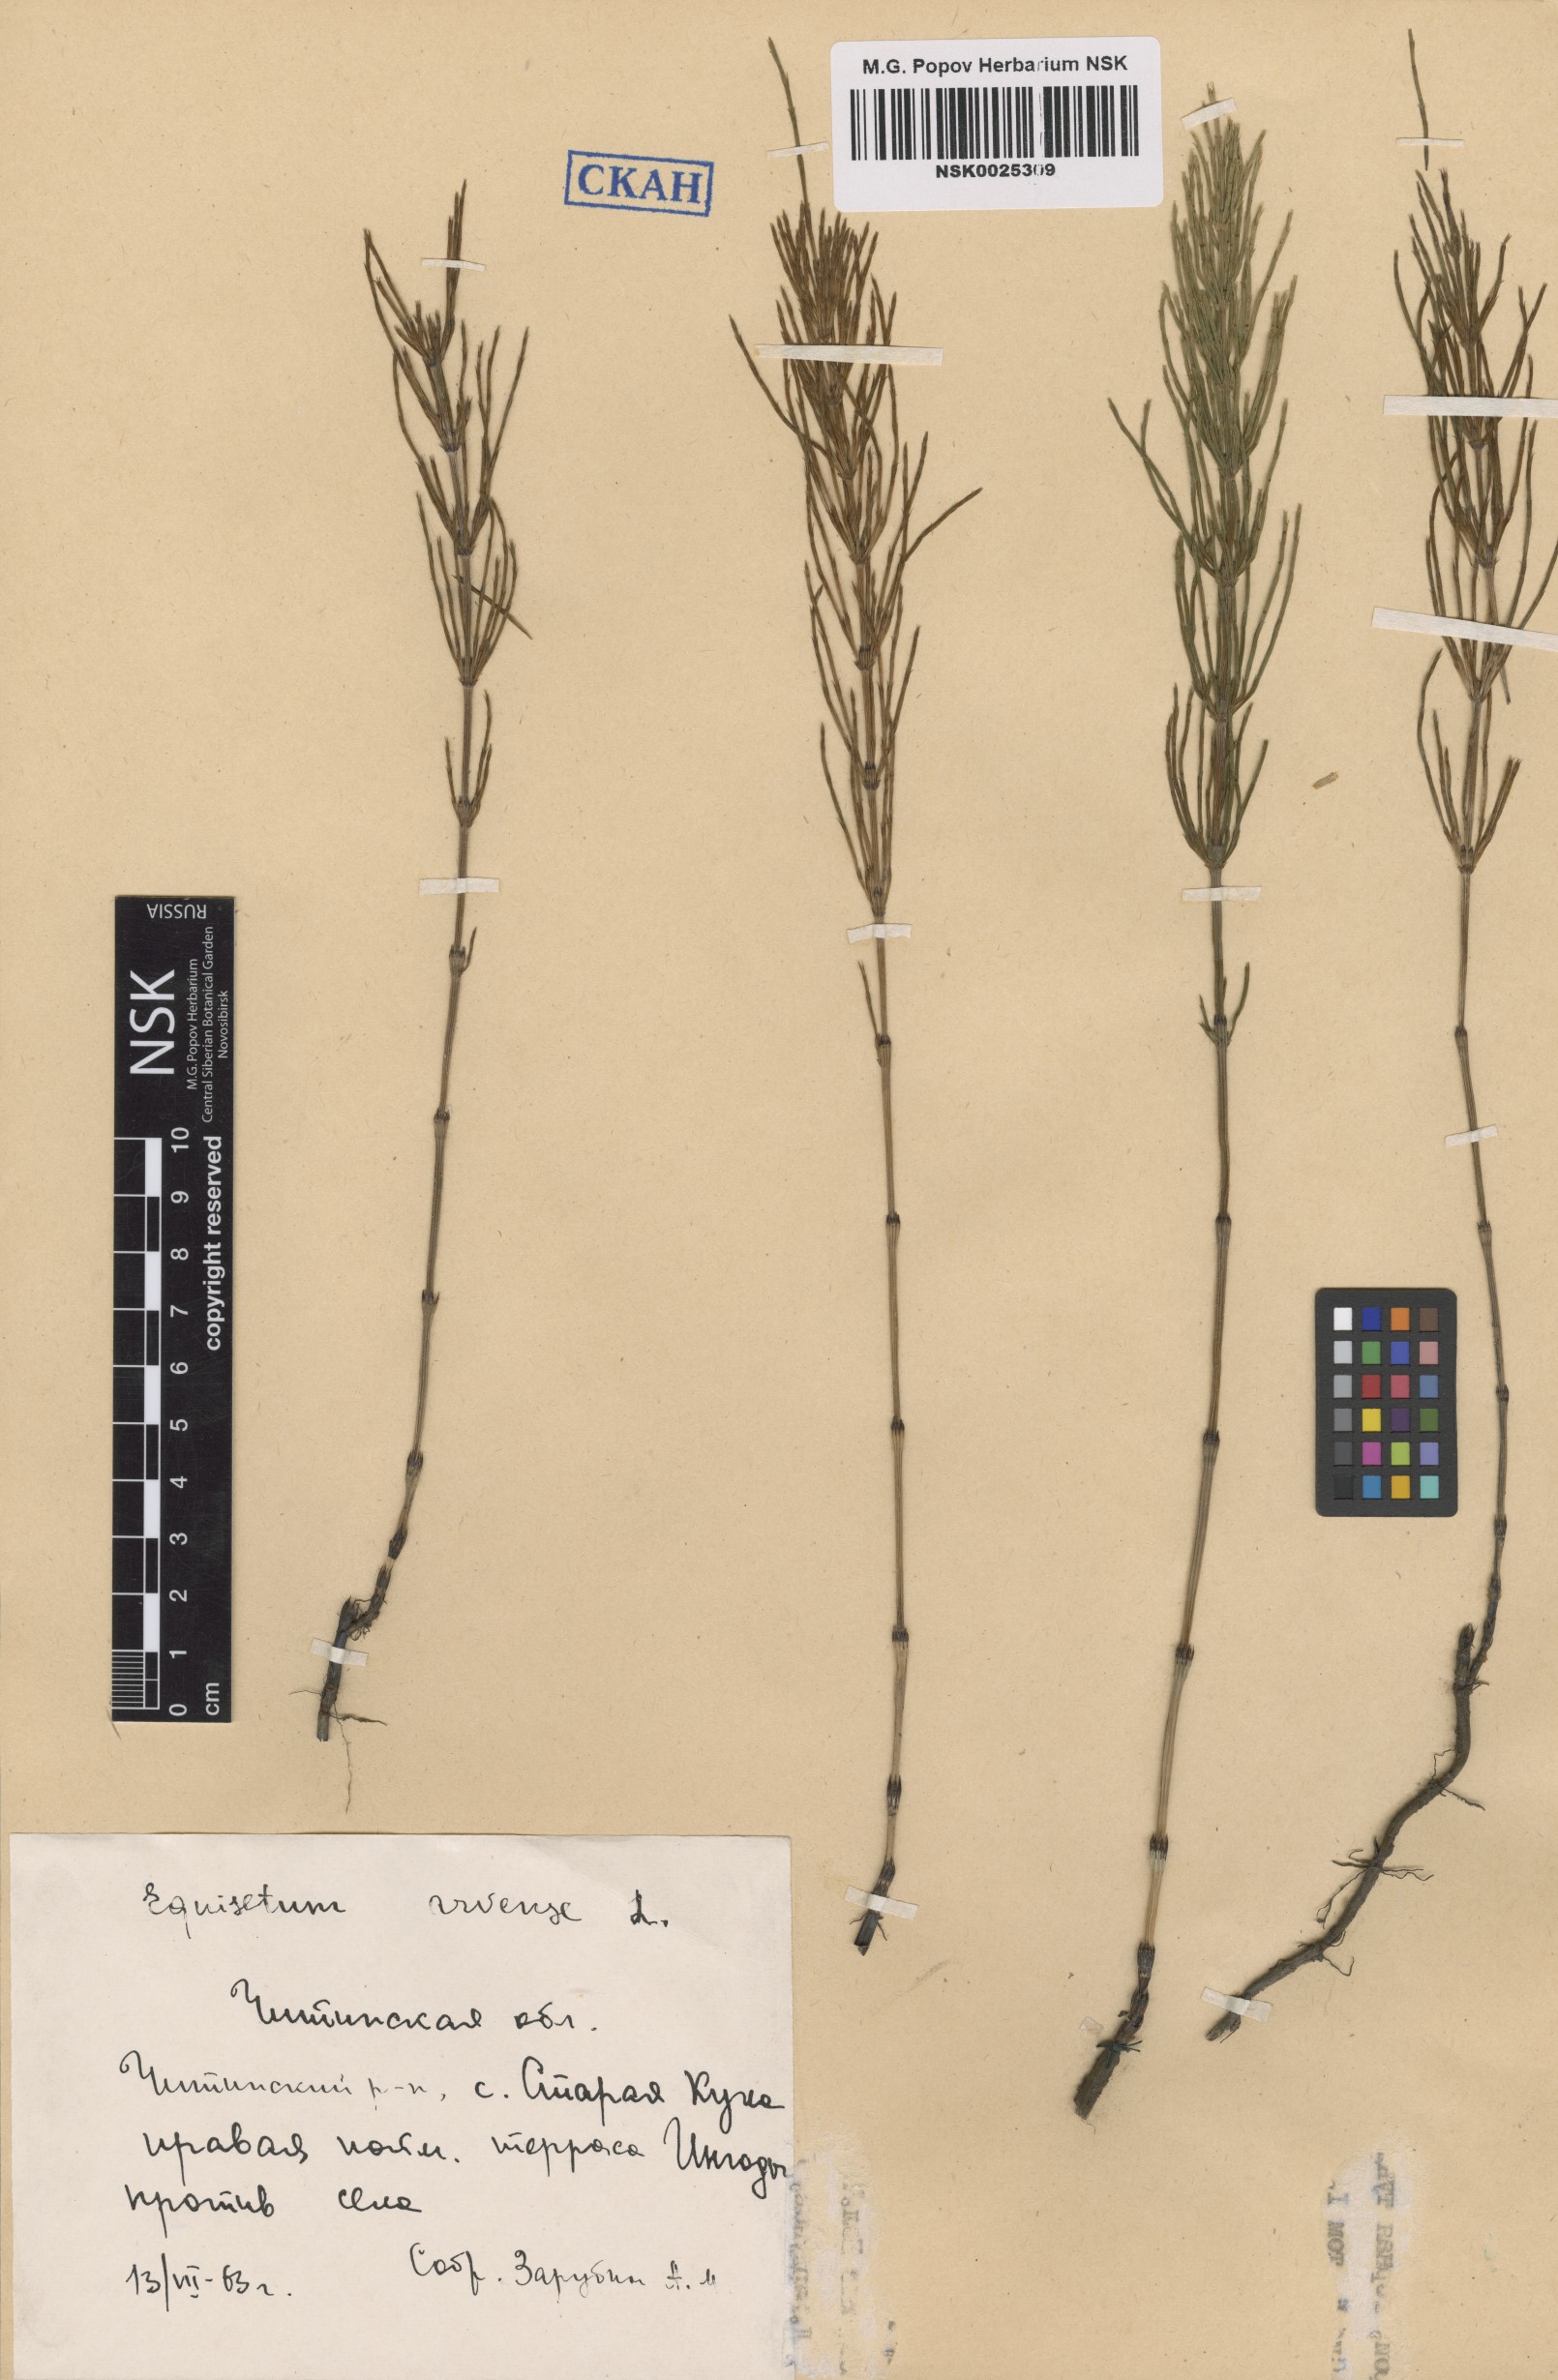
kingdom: Plantae
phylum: Tracheophyta
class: Polypodiopsida
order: Equisetales
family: Equisetaceae
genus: Equisetum
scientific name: Equisetum arvense
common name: Field horsetail
